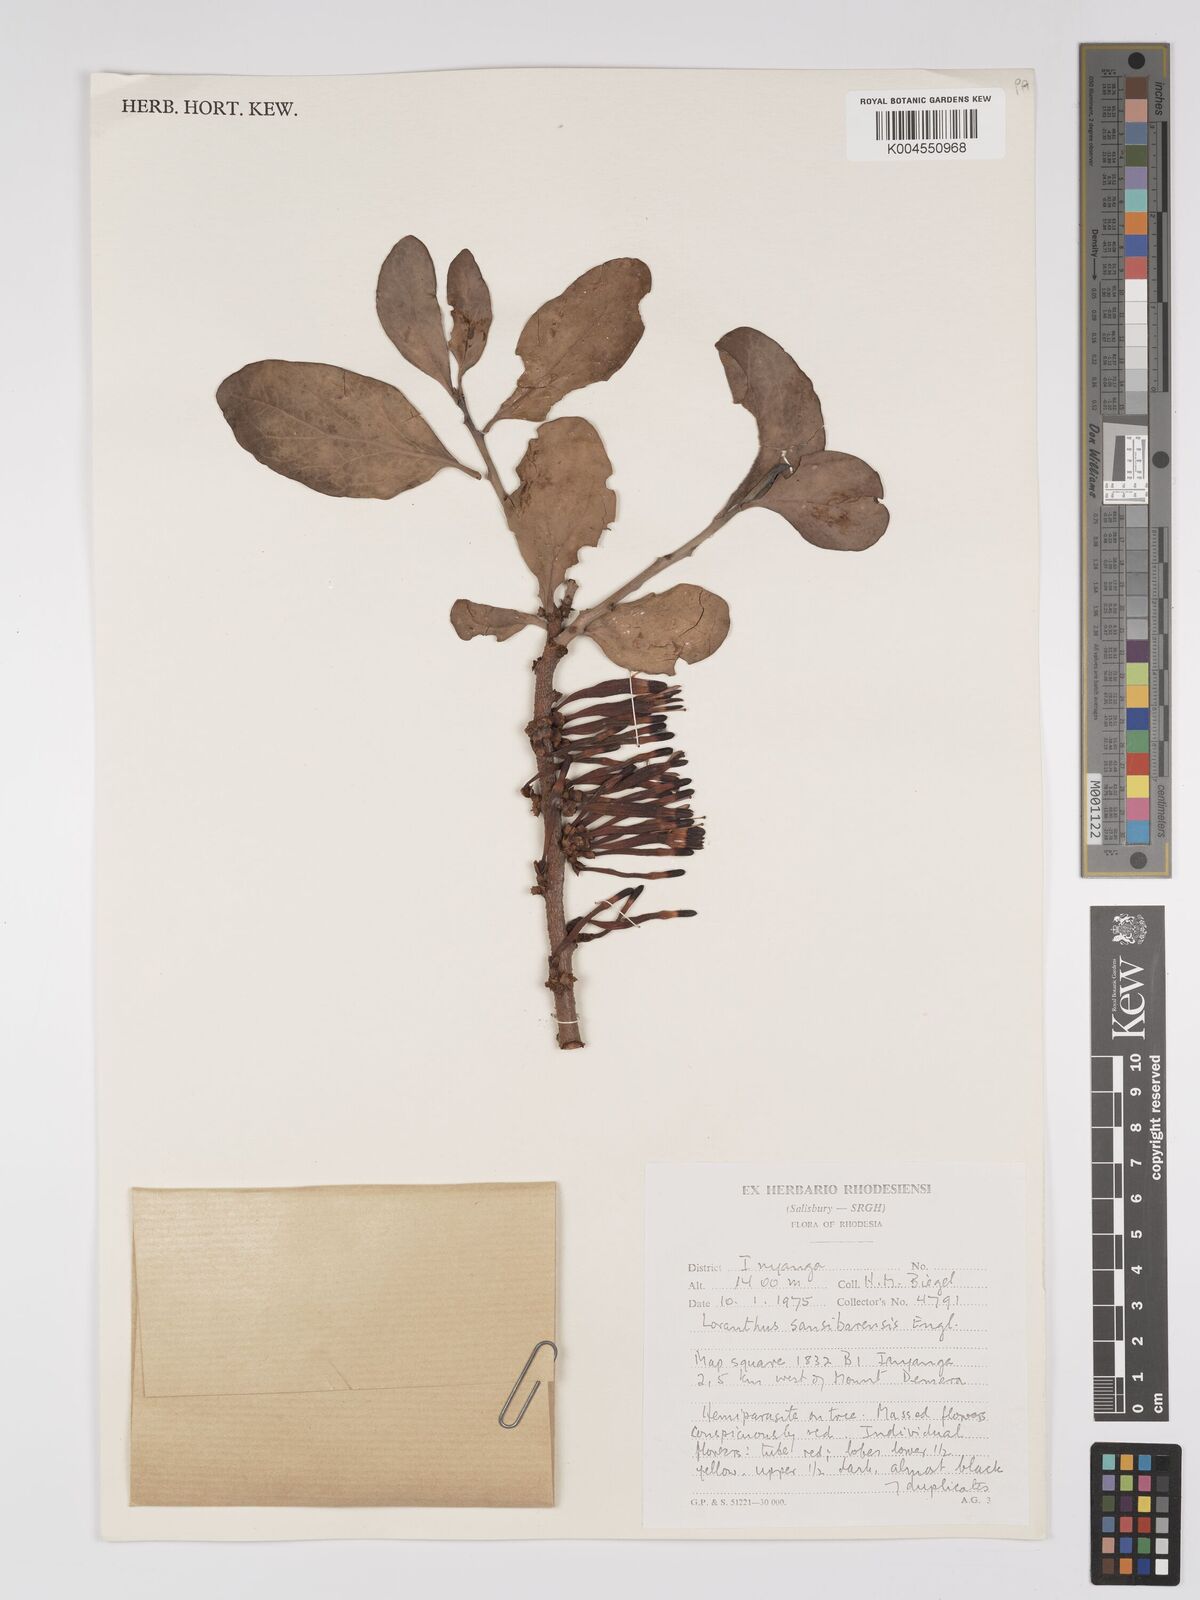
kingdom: Plantae
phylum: Tracheophyta
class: Magnoliopsida
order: Santalales
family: Loranthaceae
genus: Agelanthus
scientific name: Agelanthus fuellebornii
